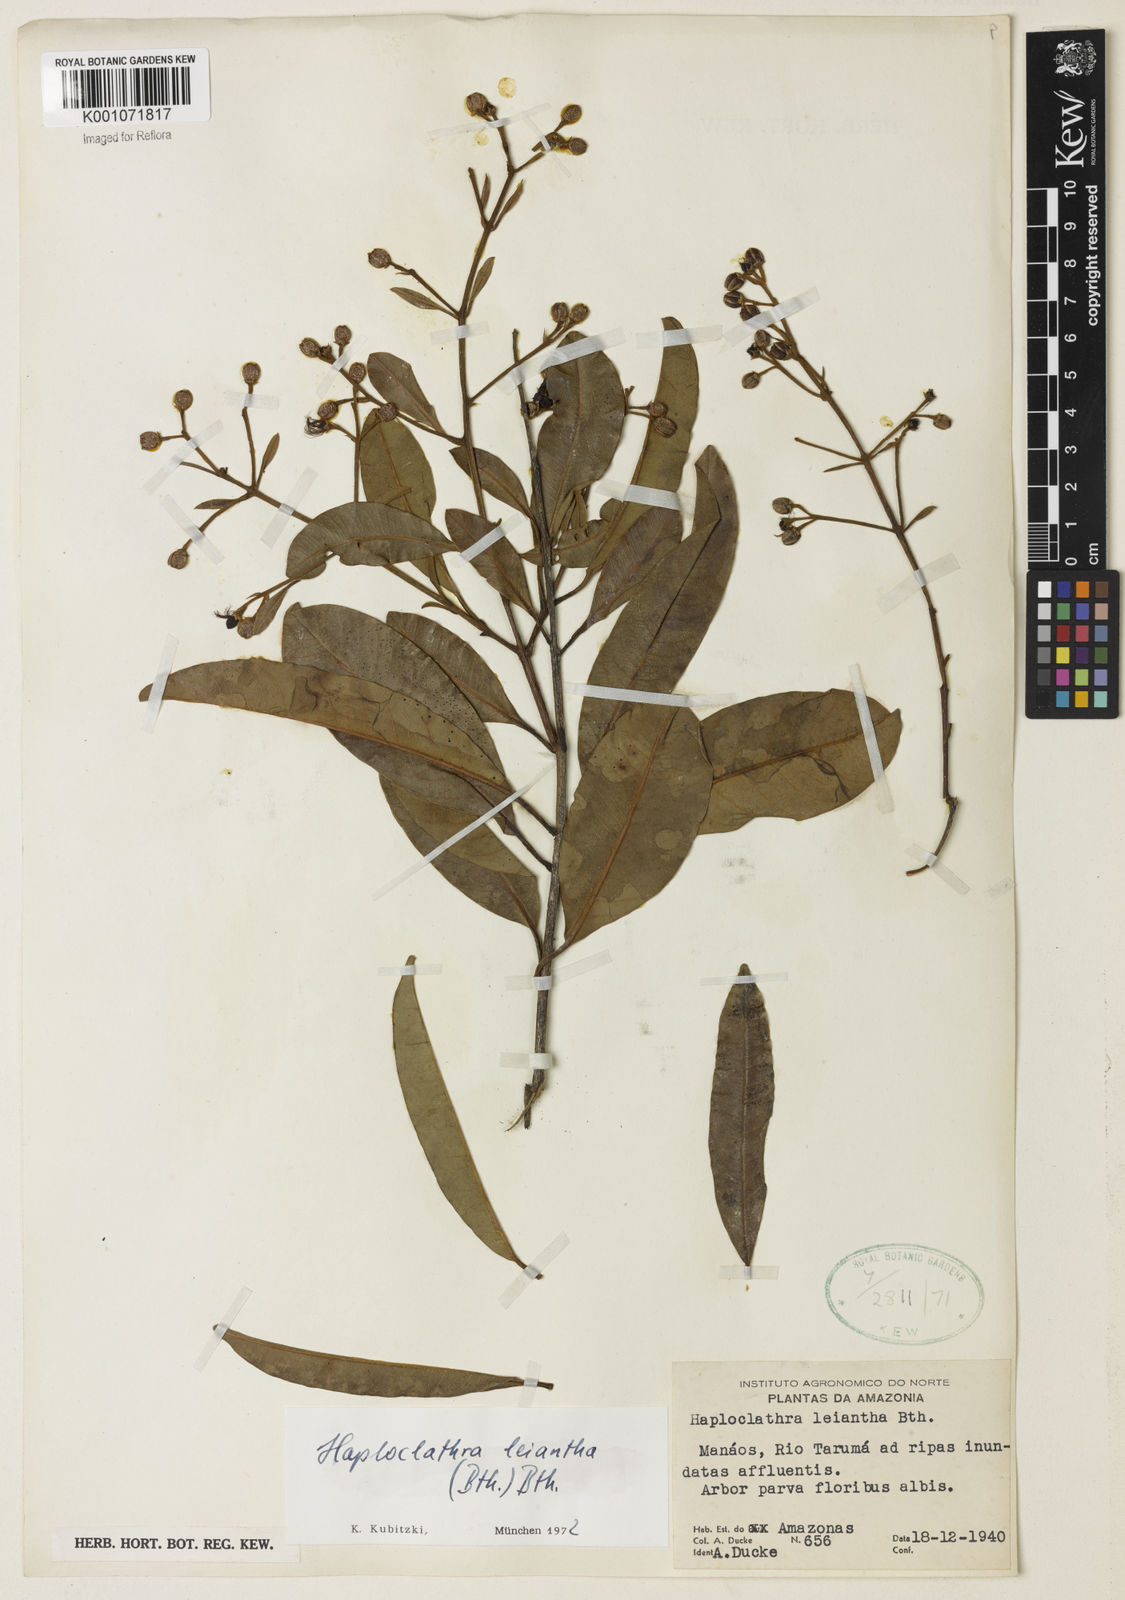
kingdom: Plantae
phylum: Tracheophyta
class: Magnoliopsida
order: Malpighiales
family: Calophyllaceae
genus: Haploclathra
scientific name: Haploclathra leiantha
